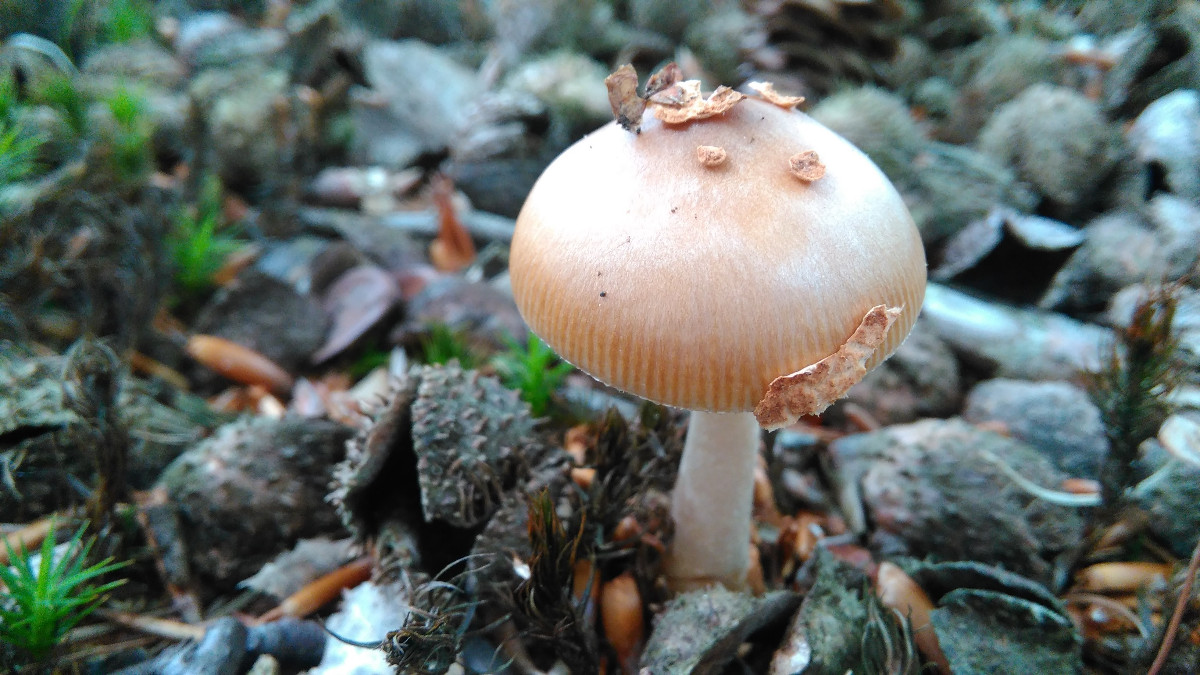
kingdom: Fungi
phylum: Basidiomycota
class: Agaricomycetes
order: Agaricales
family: Amanitaceae
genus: Amanita
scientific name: Amanita fulva
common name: brun kam-fluesvamp
